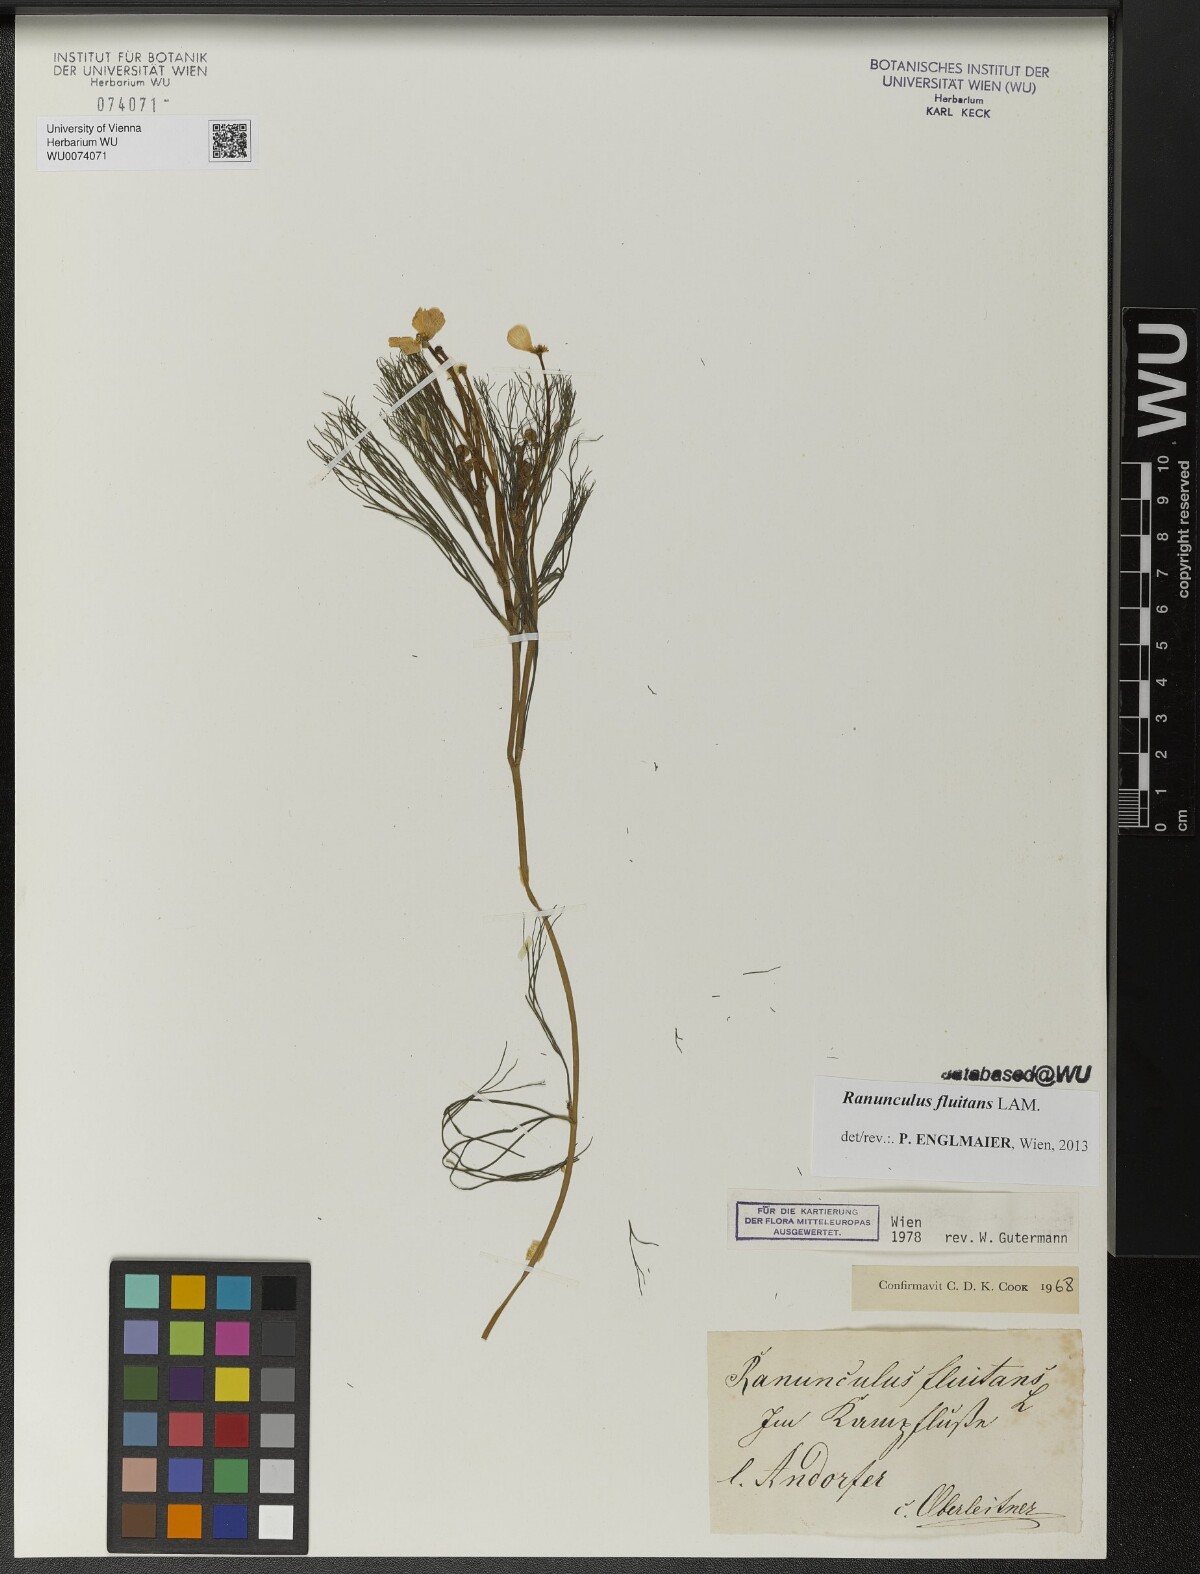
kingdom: Plantae
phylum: Tracheophyta
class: Magnoliopsida
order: Ranunculales
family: Ranunculaceae
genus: Ranunculus
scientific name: Ranunculus fluitans
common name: River water-crowfoot
